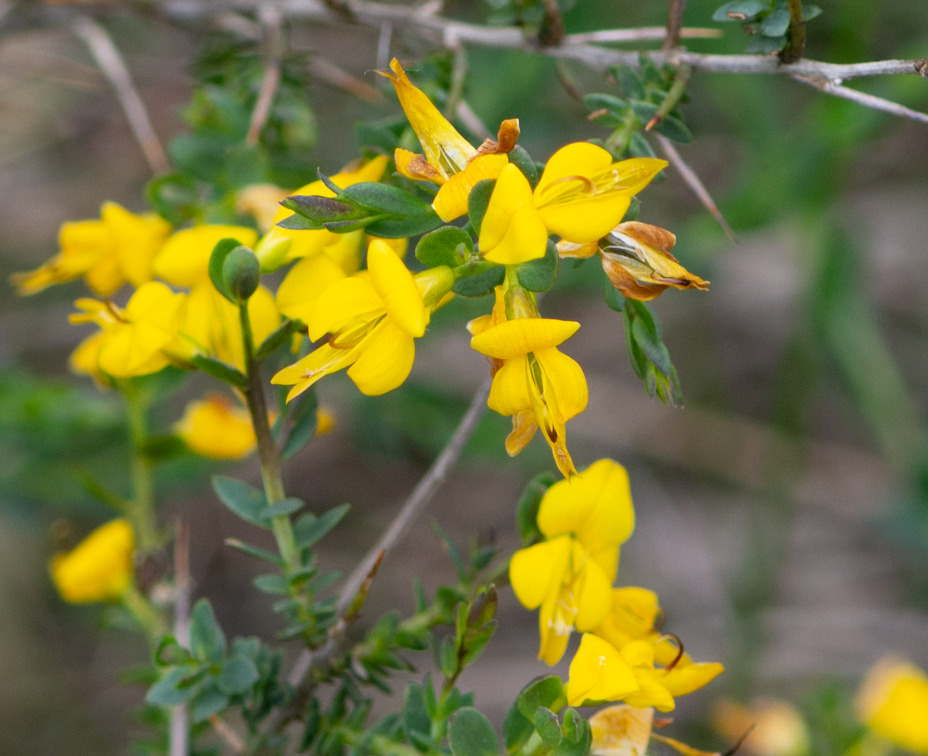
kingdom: Plantae
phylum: Tracheophyta
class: Magnoliopsida
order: Fabales
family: Fabaceae
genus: Genista
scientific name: Genista anglica
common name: Engelsk visse
